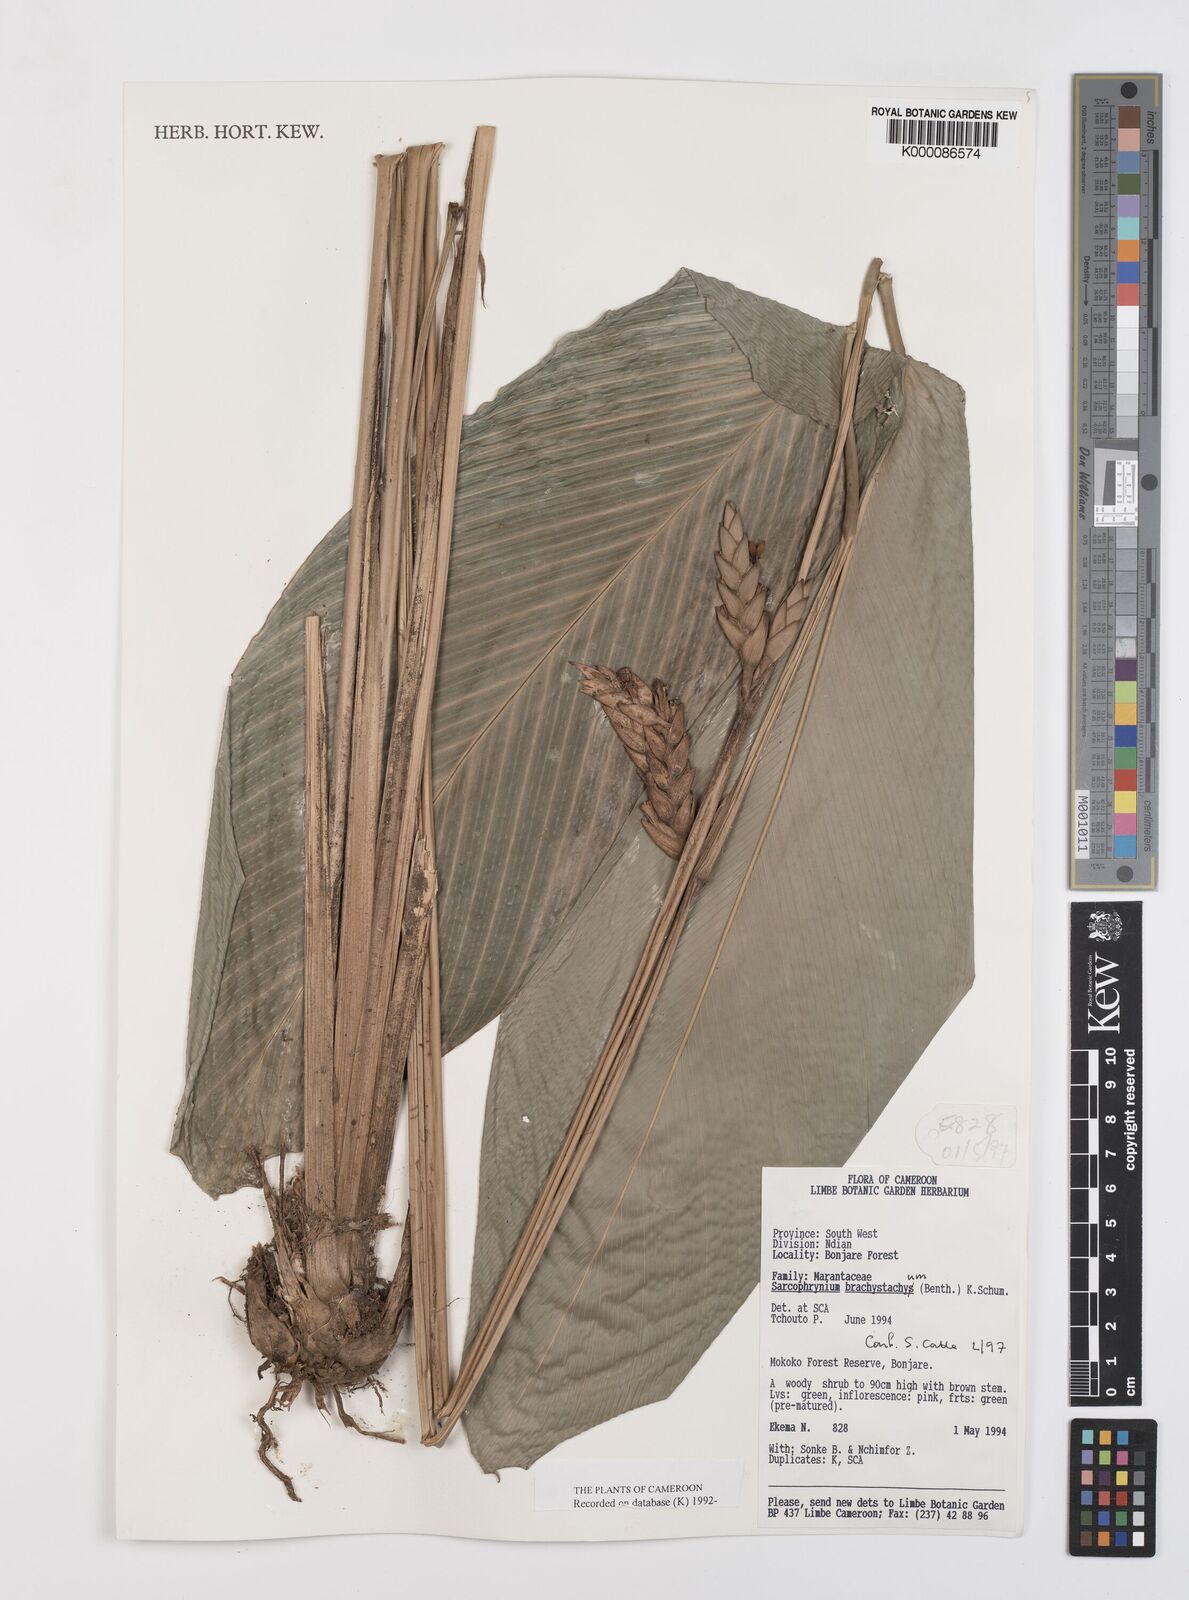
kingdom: Plantae
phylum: Tracheophyta
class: Liliopsida
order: Zingiberales
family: Marantaceae
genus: Sarcophrynium
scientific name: Sarcophrynium
